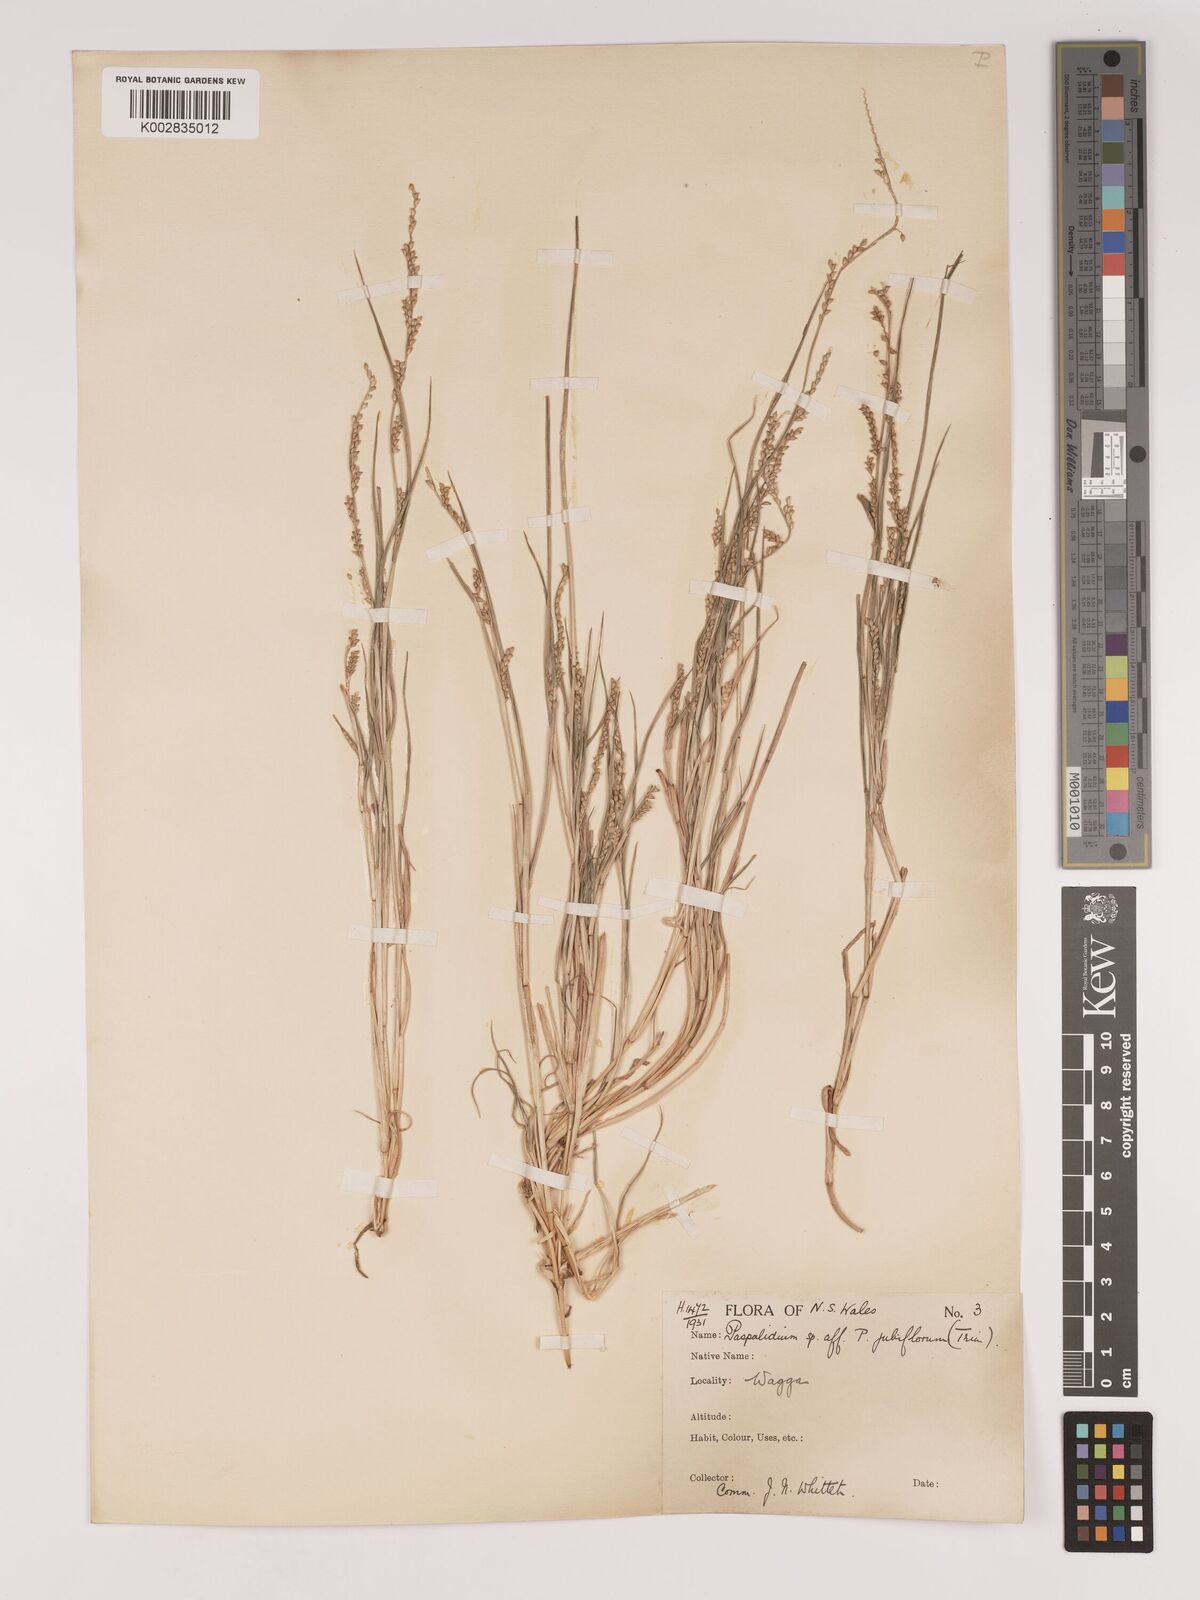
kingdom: Plantae
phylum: Tracheophyta
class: Liliopsida
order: Poales
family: Poaceae
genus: Setaria
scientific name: Setaria
